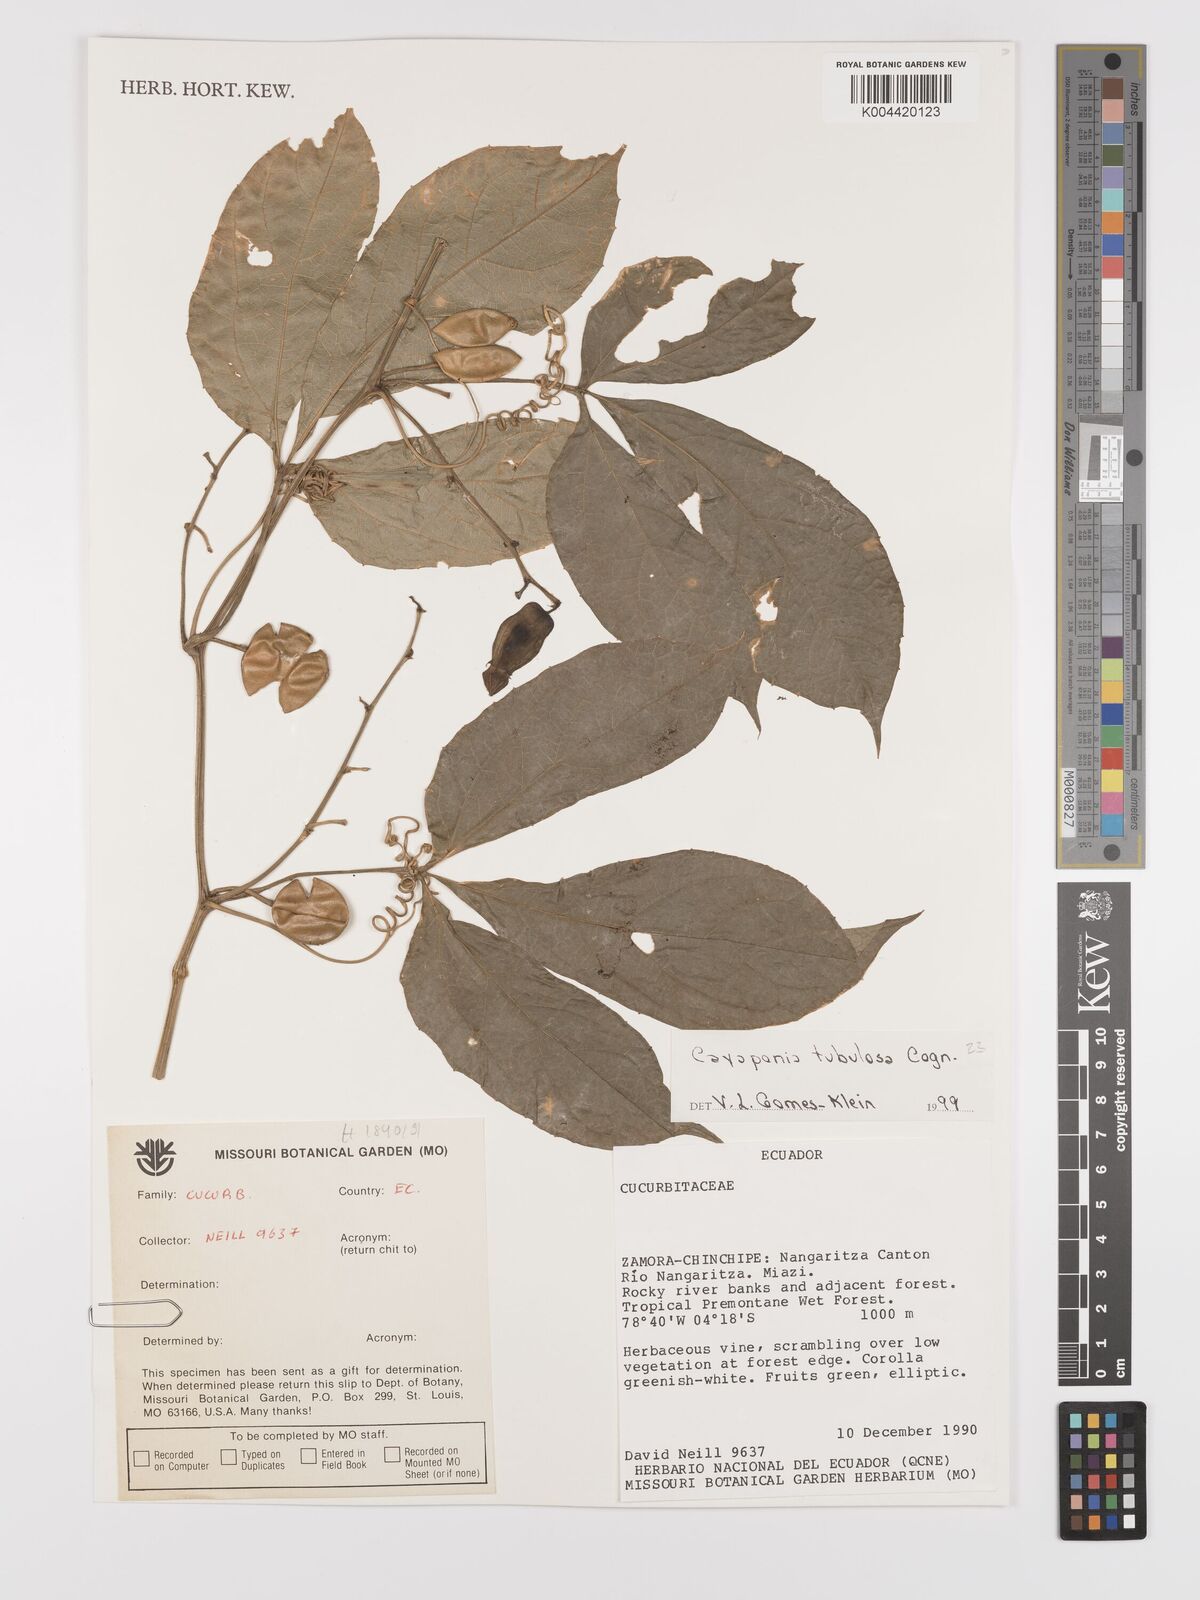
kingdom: Plantae
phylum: Tracheophyta
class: Magnoliopsida
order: Cucurbitales
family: Cucurbitaceae
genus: Cayaponia
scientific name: Cayaponia tubulosa
